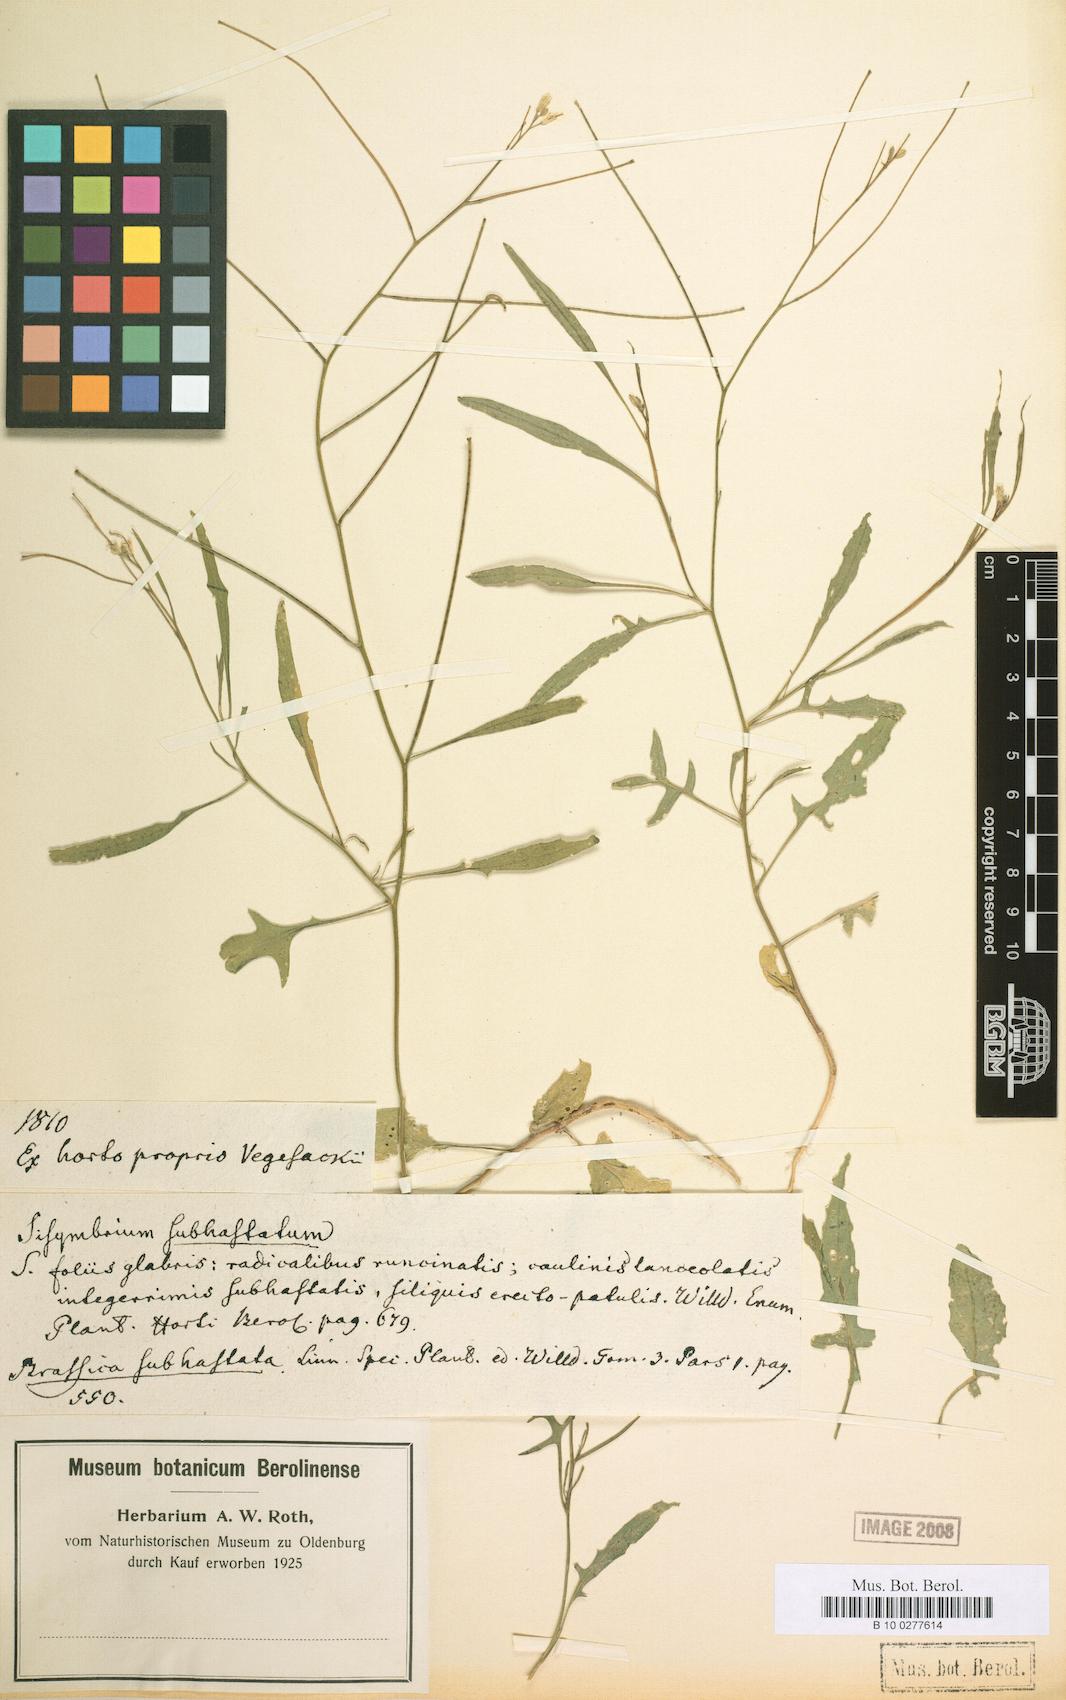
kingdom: Plantae
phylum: Tracheophyta
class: Magnoliopsida
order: Brassicales
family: Brassicaceae
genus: Sisymbrium
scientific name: Sisymbrium orientale
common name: Eastern rocket
